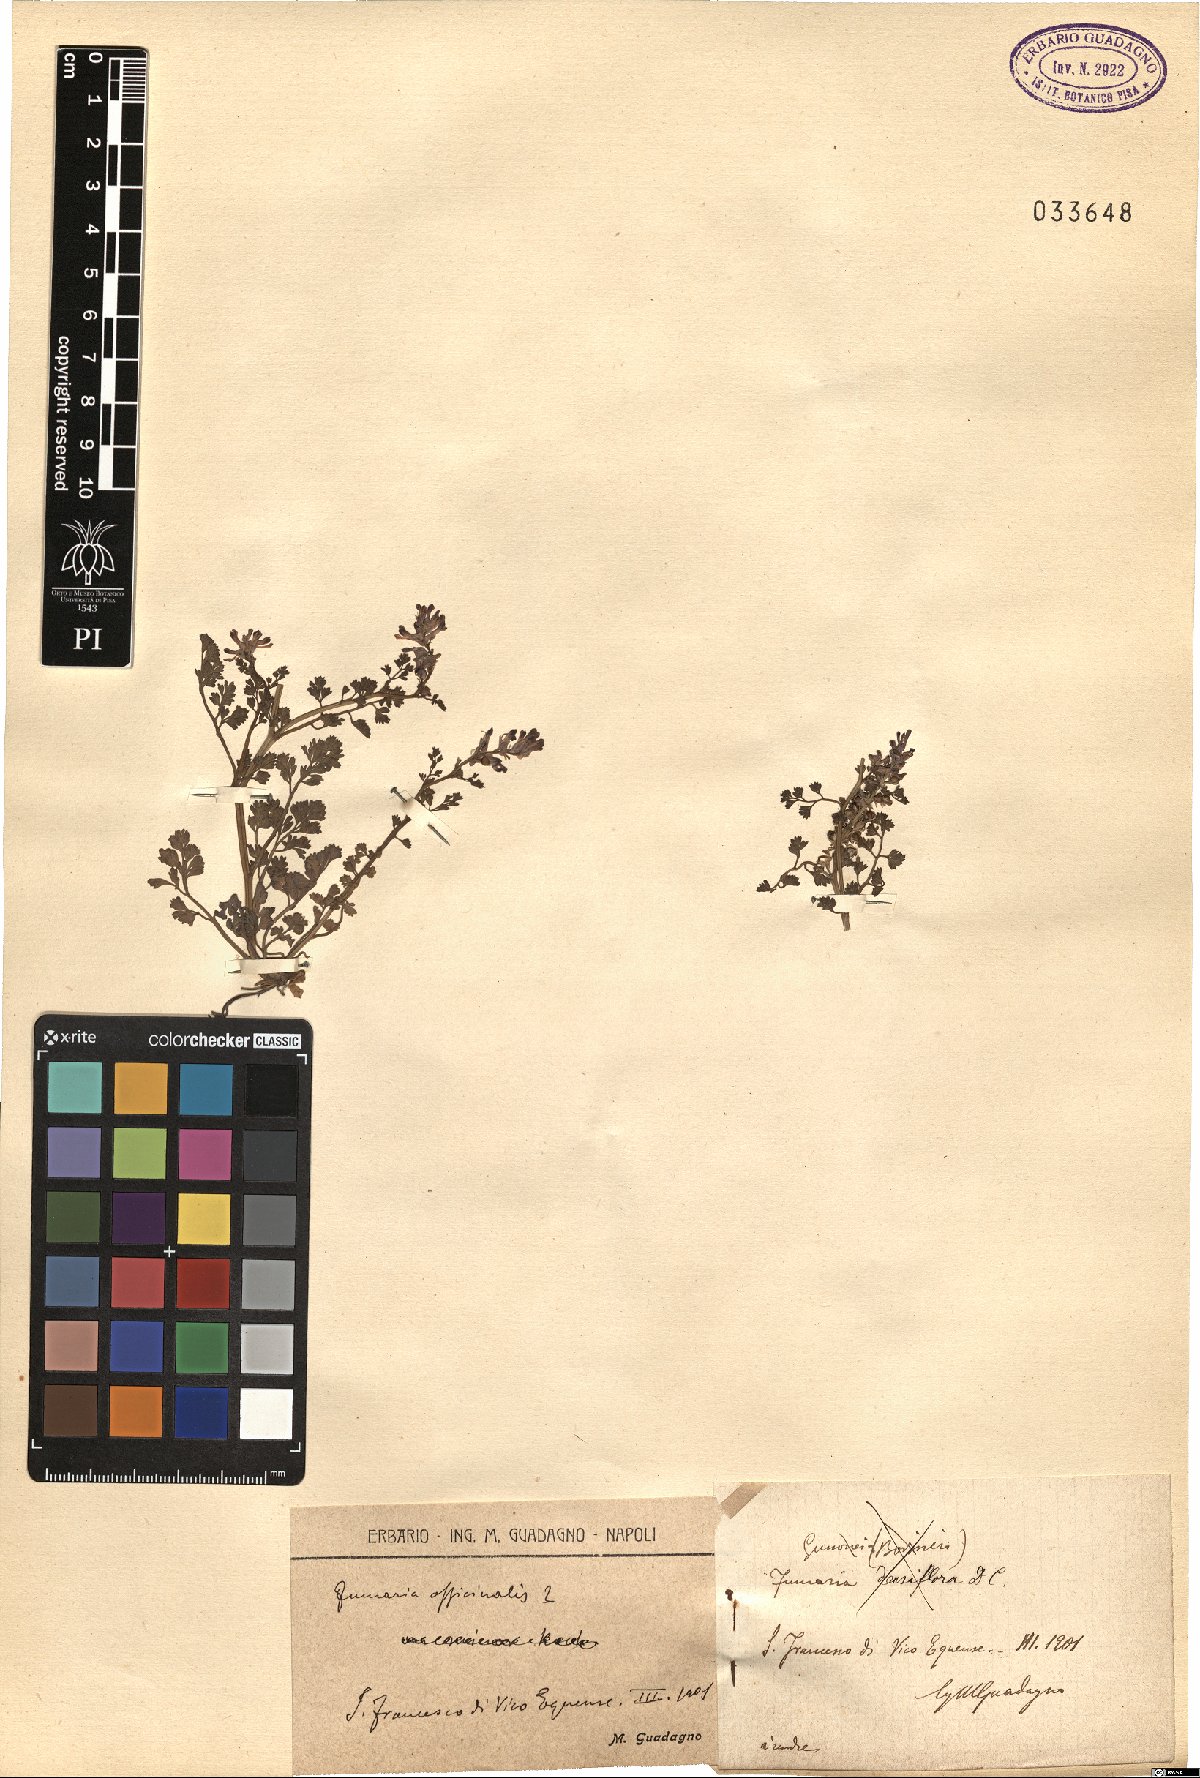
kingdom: Plantae
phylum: Tracheophyta
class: Magnoliopsida
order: Ranunculales
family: Papaveraceae
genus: Fumaria
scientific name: Fumaria officinalis
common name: Common fumitory
